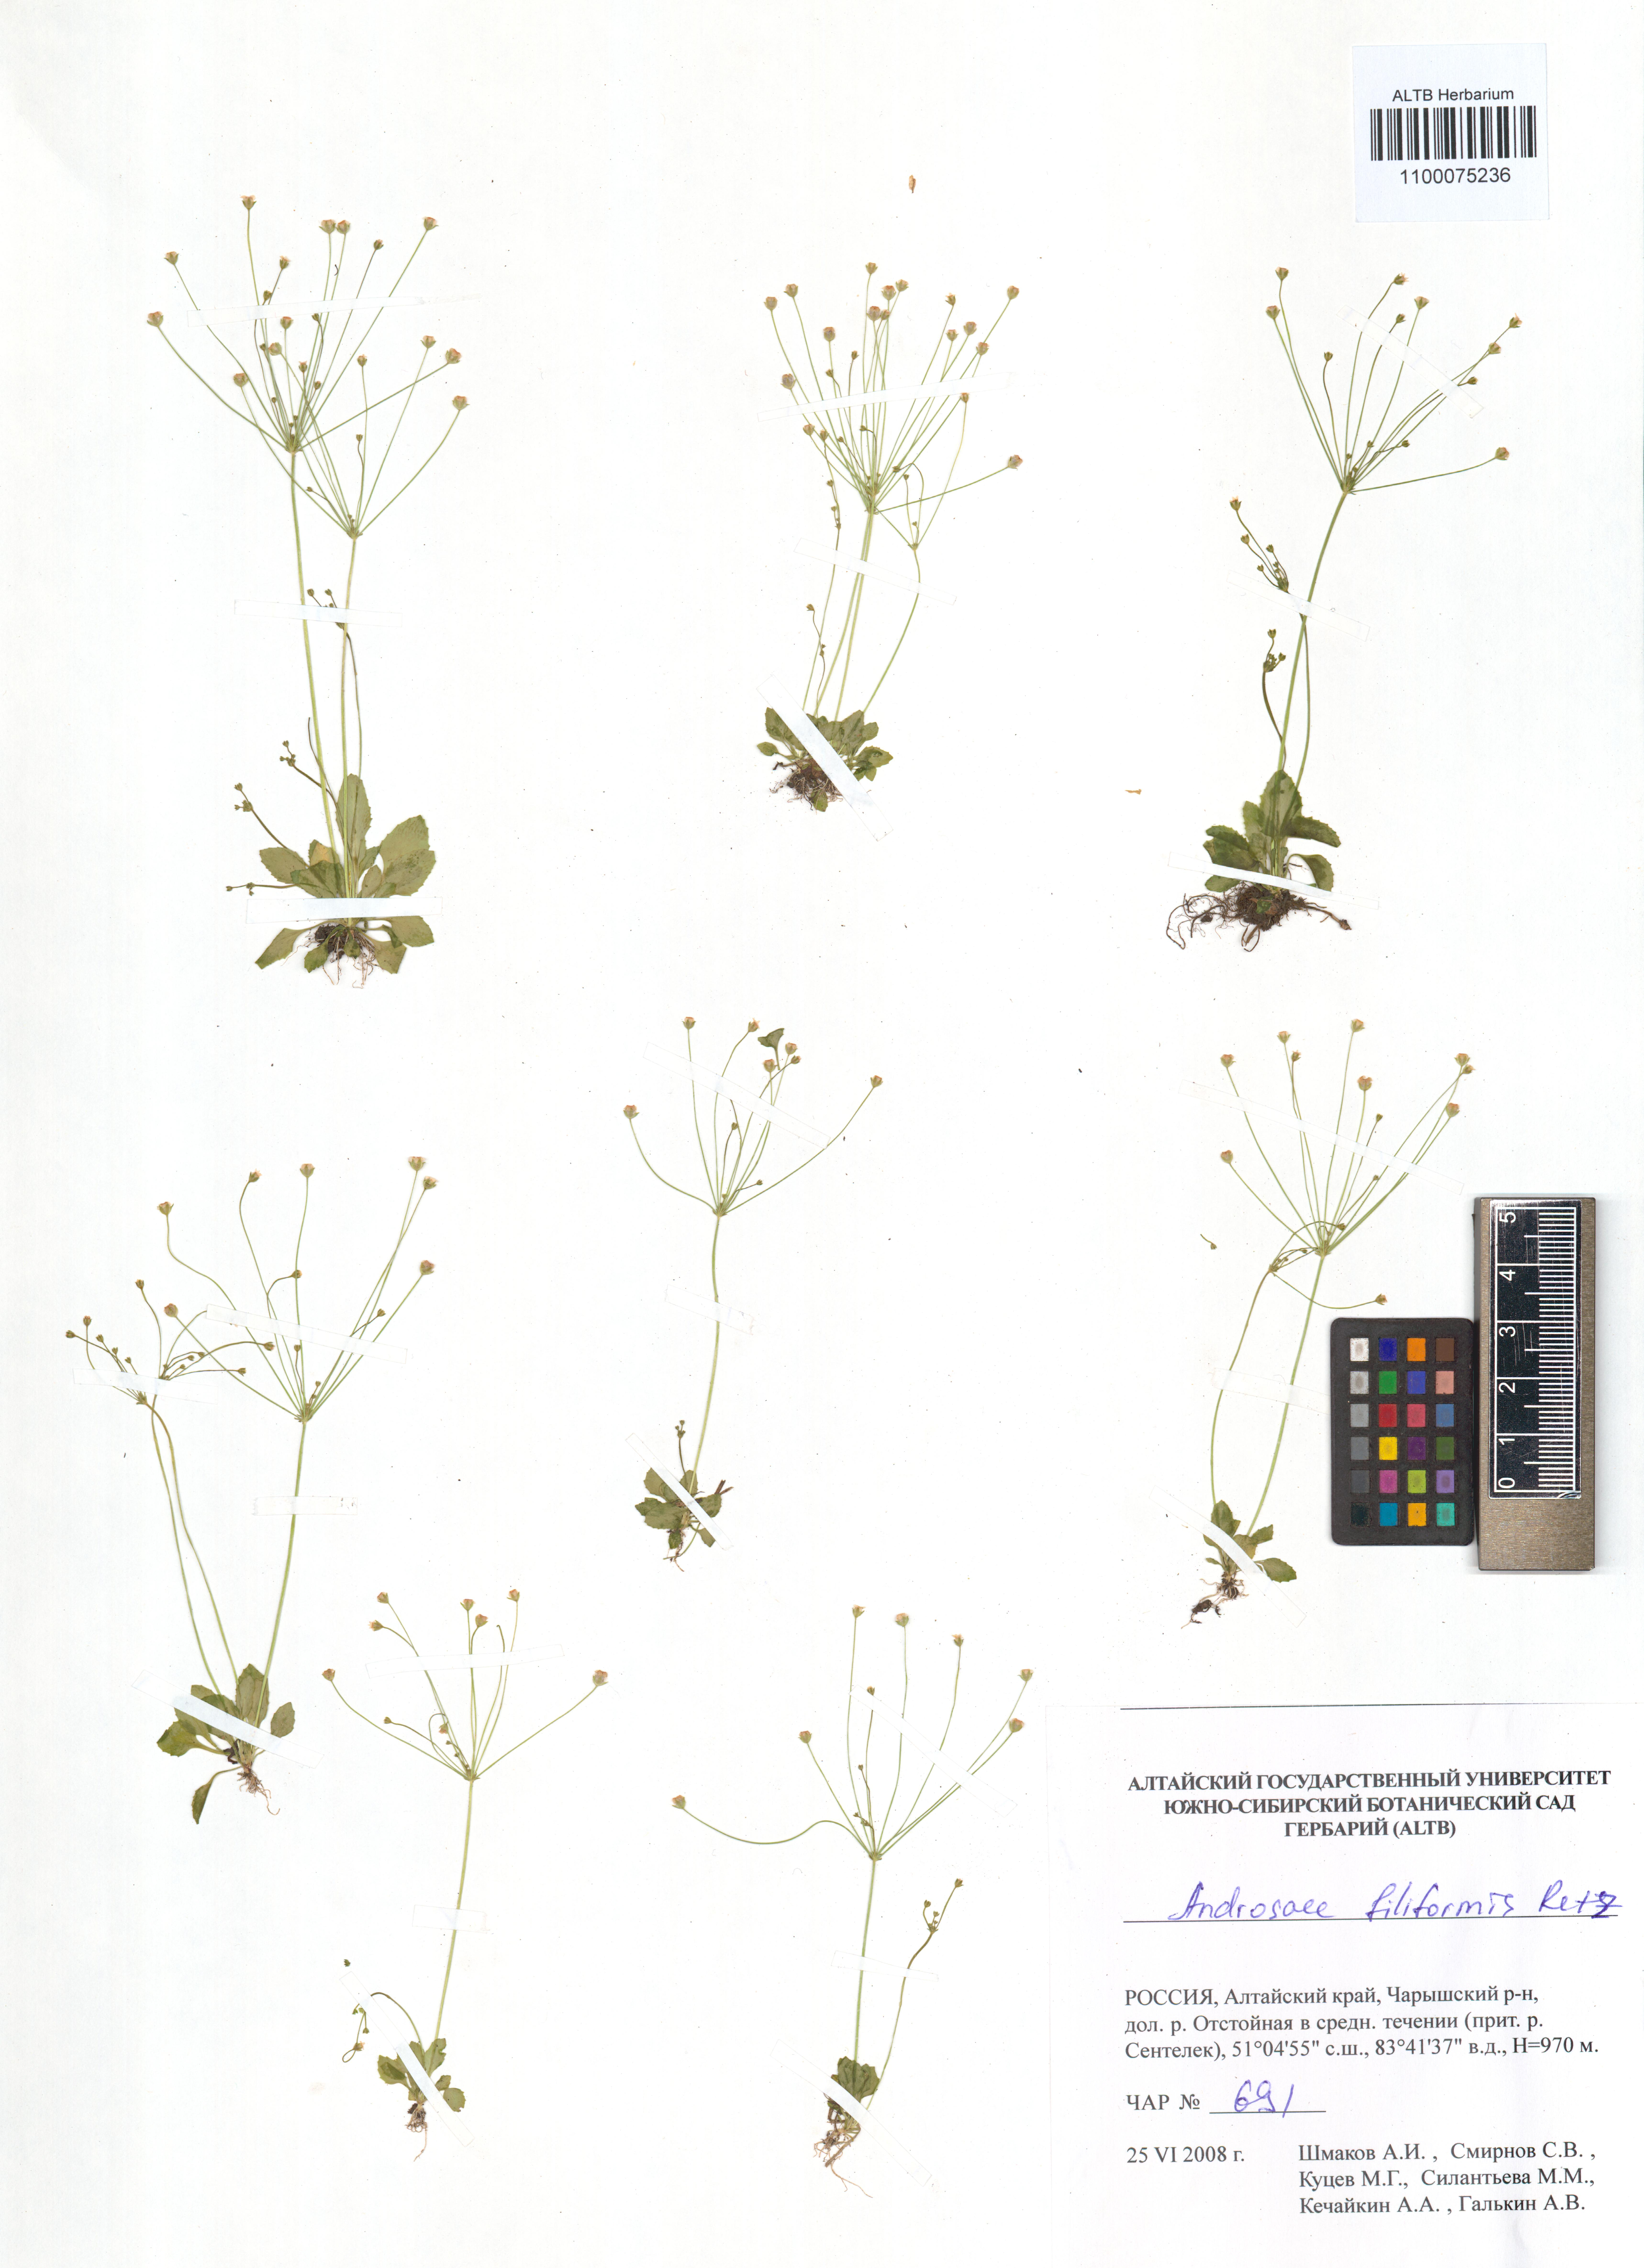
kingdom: Plantae
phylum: Tracheophyta
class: Magnoliopsida
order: Ericales
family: Primulaceae
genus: Androsace
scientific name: Androsace filiformis
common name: Filiform rock jasmine
